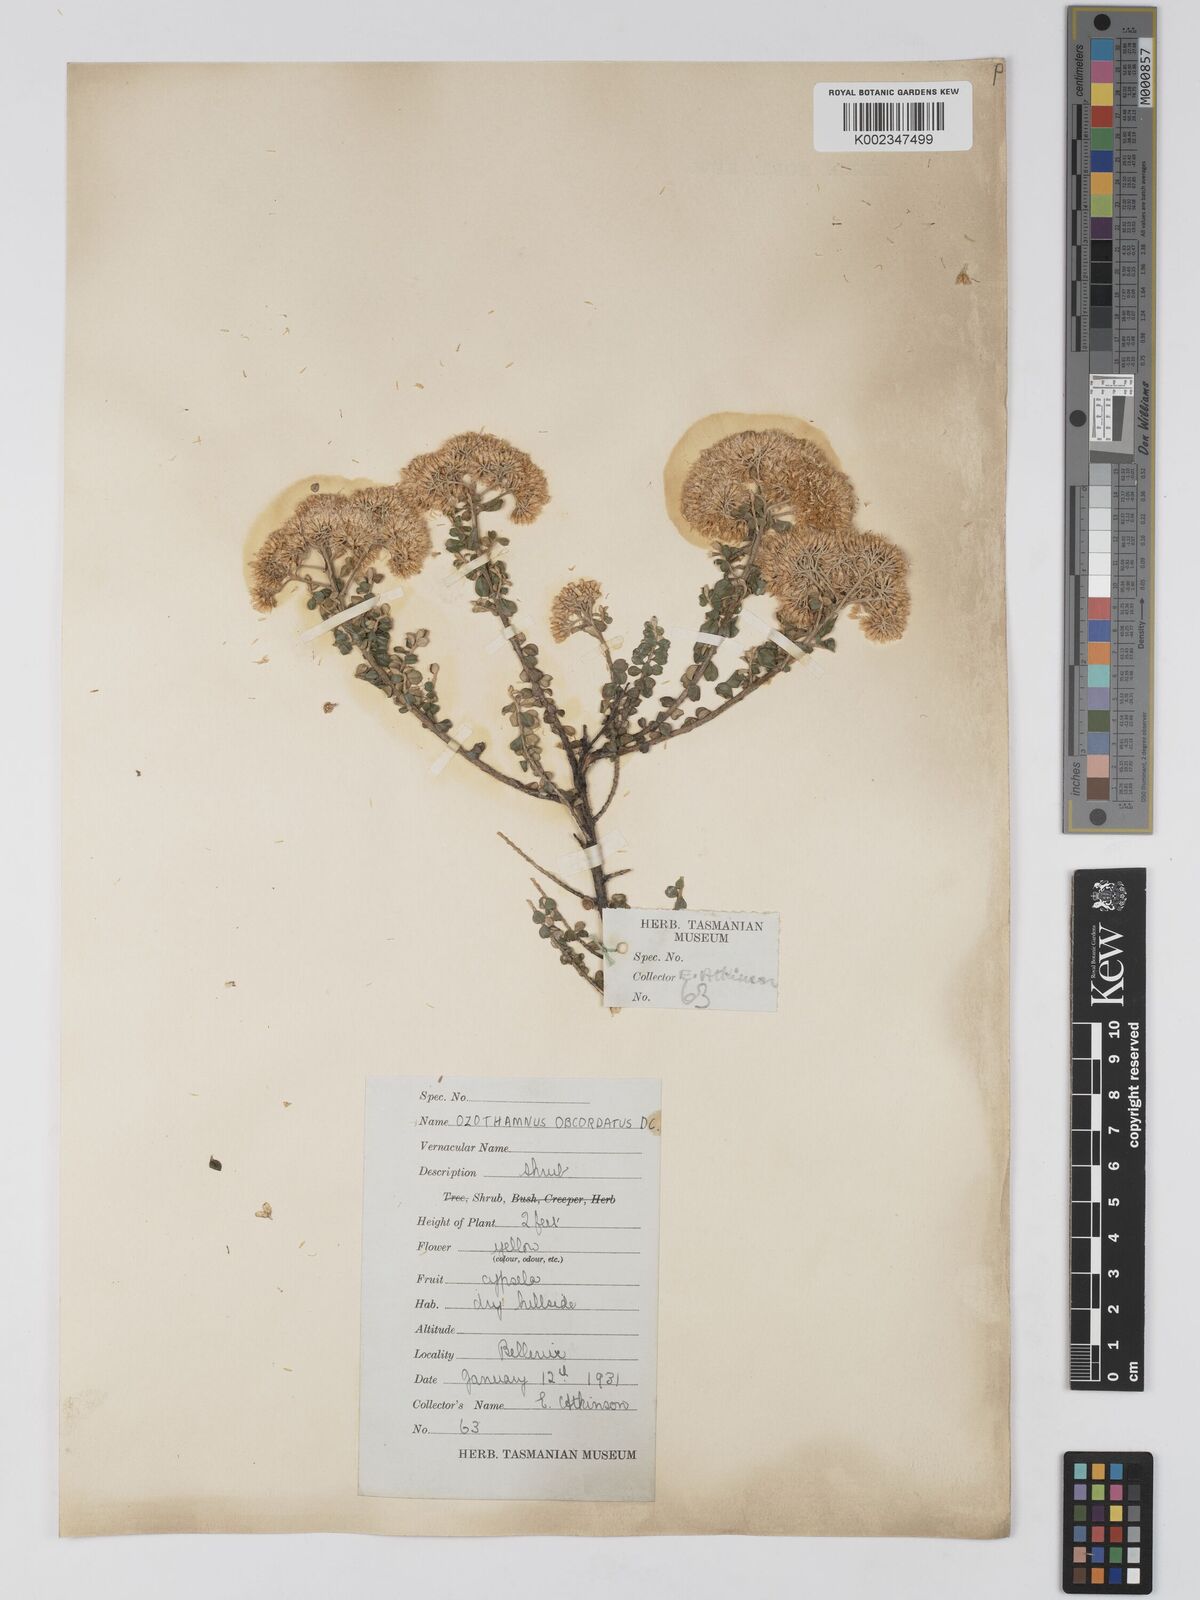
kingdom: Plantae
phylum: Tracheophyta
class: Magnoliopsida
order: Asterales
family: Asteraceae
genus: Ozothamnus
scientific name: Ozothamnus
